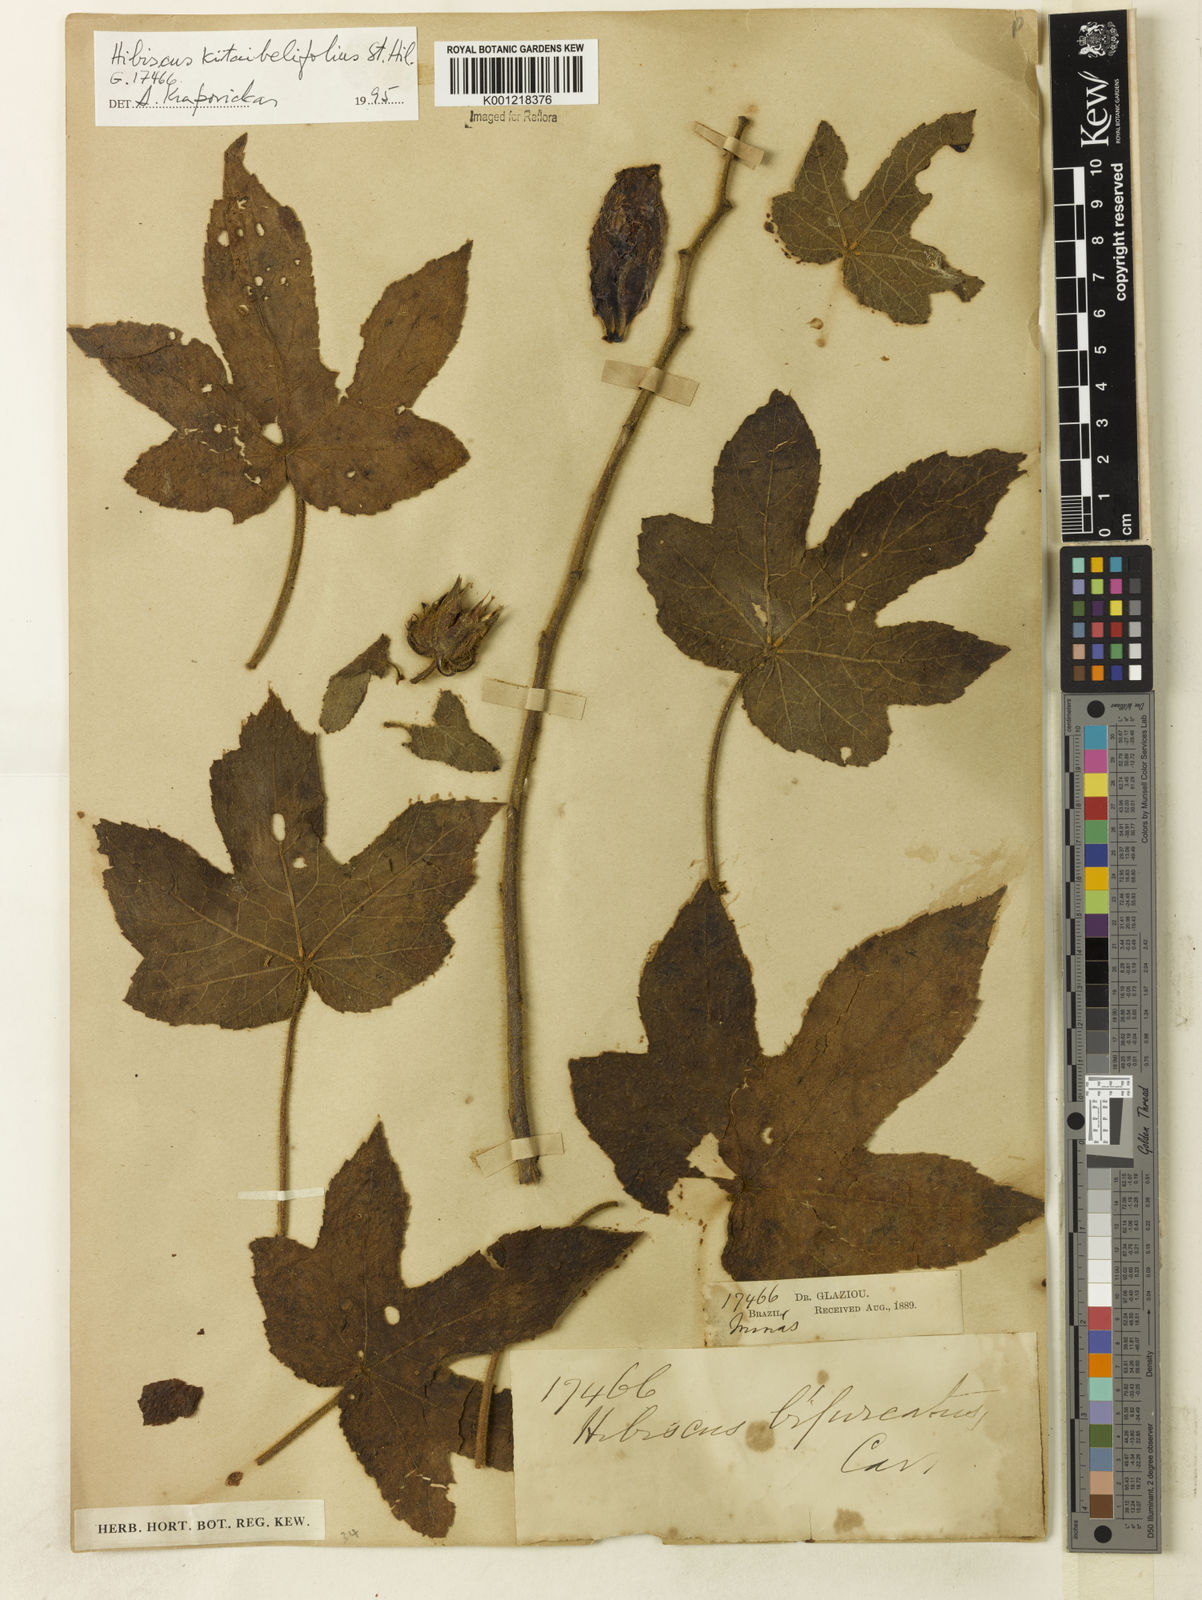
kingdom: Plantae
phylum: Tracheophyta
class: Magnoliopsida
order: Malvales
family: Malvaceae
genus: Hibiscus
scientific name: Hibiscus kitaibelifolius
